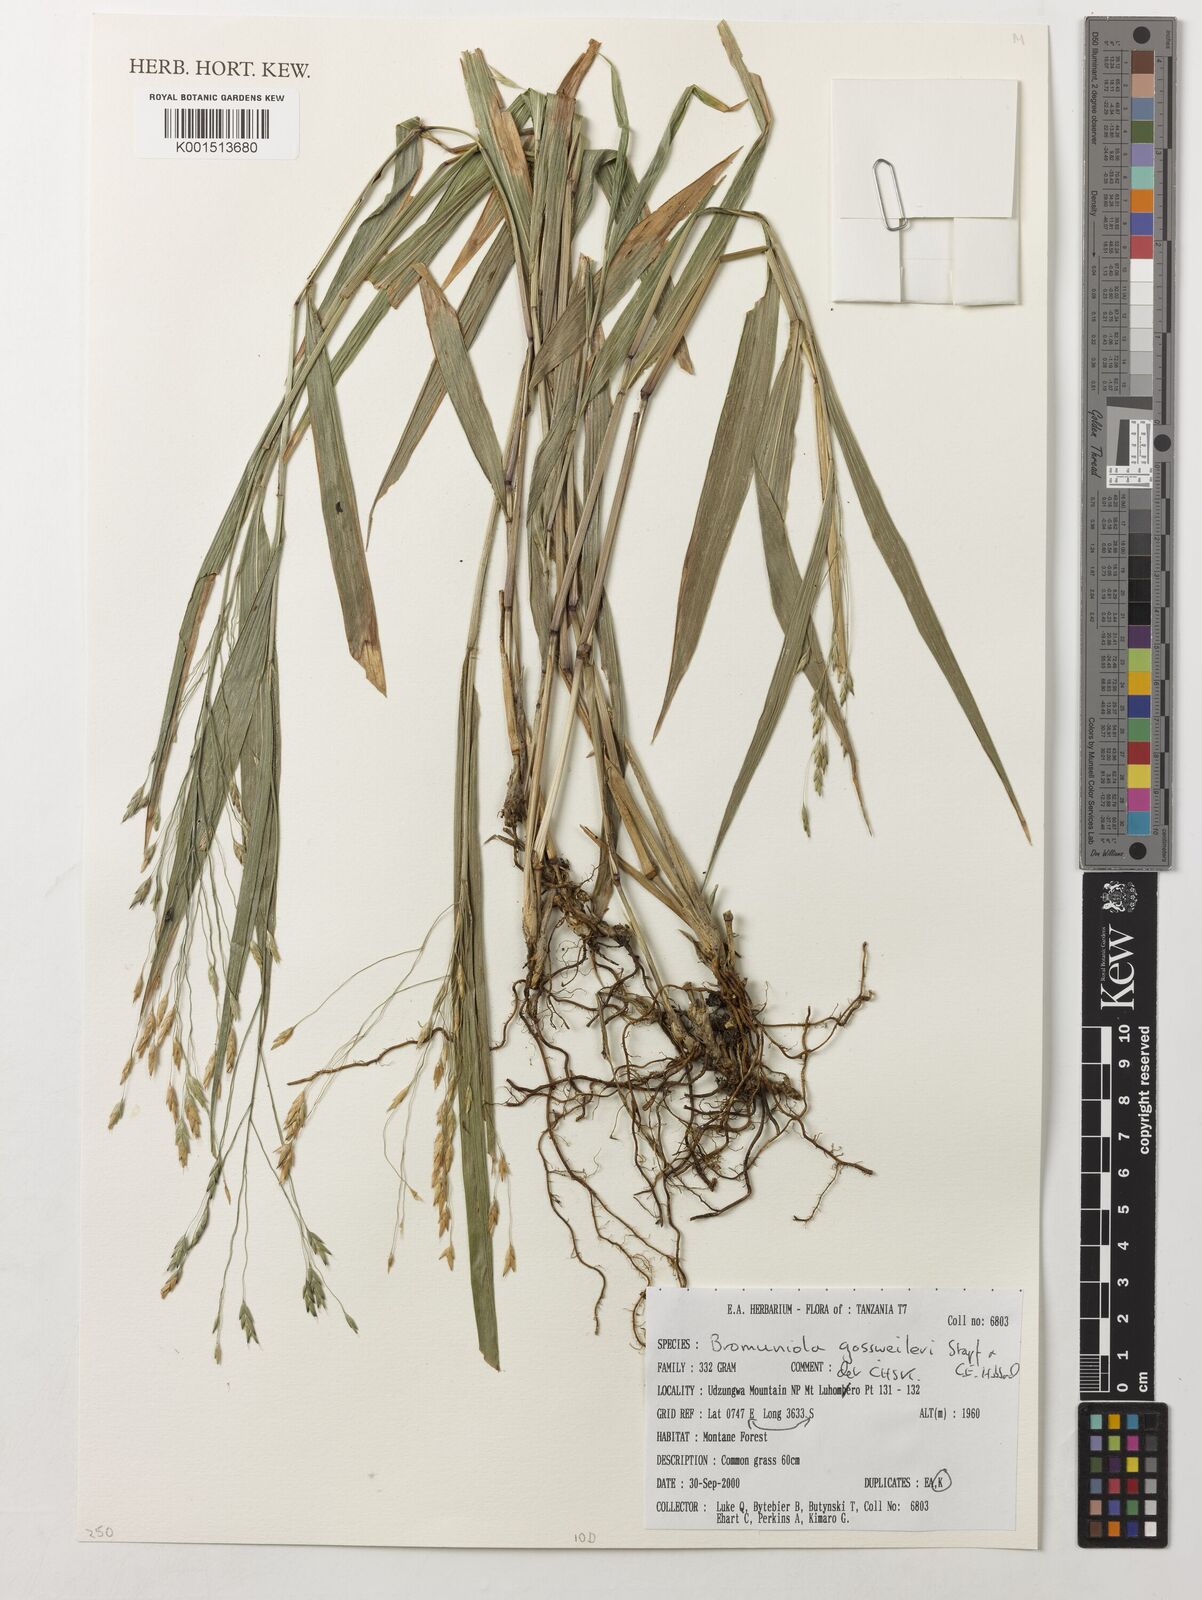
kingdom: Plantae
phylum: Tracheophyta
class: Liliopsida
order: Poales
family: Poaceae
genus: Bromuniola
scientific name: Bromuniola gossweileri
